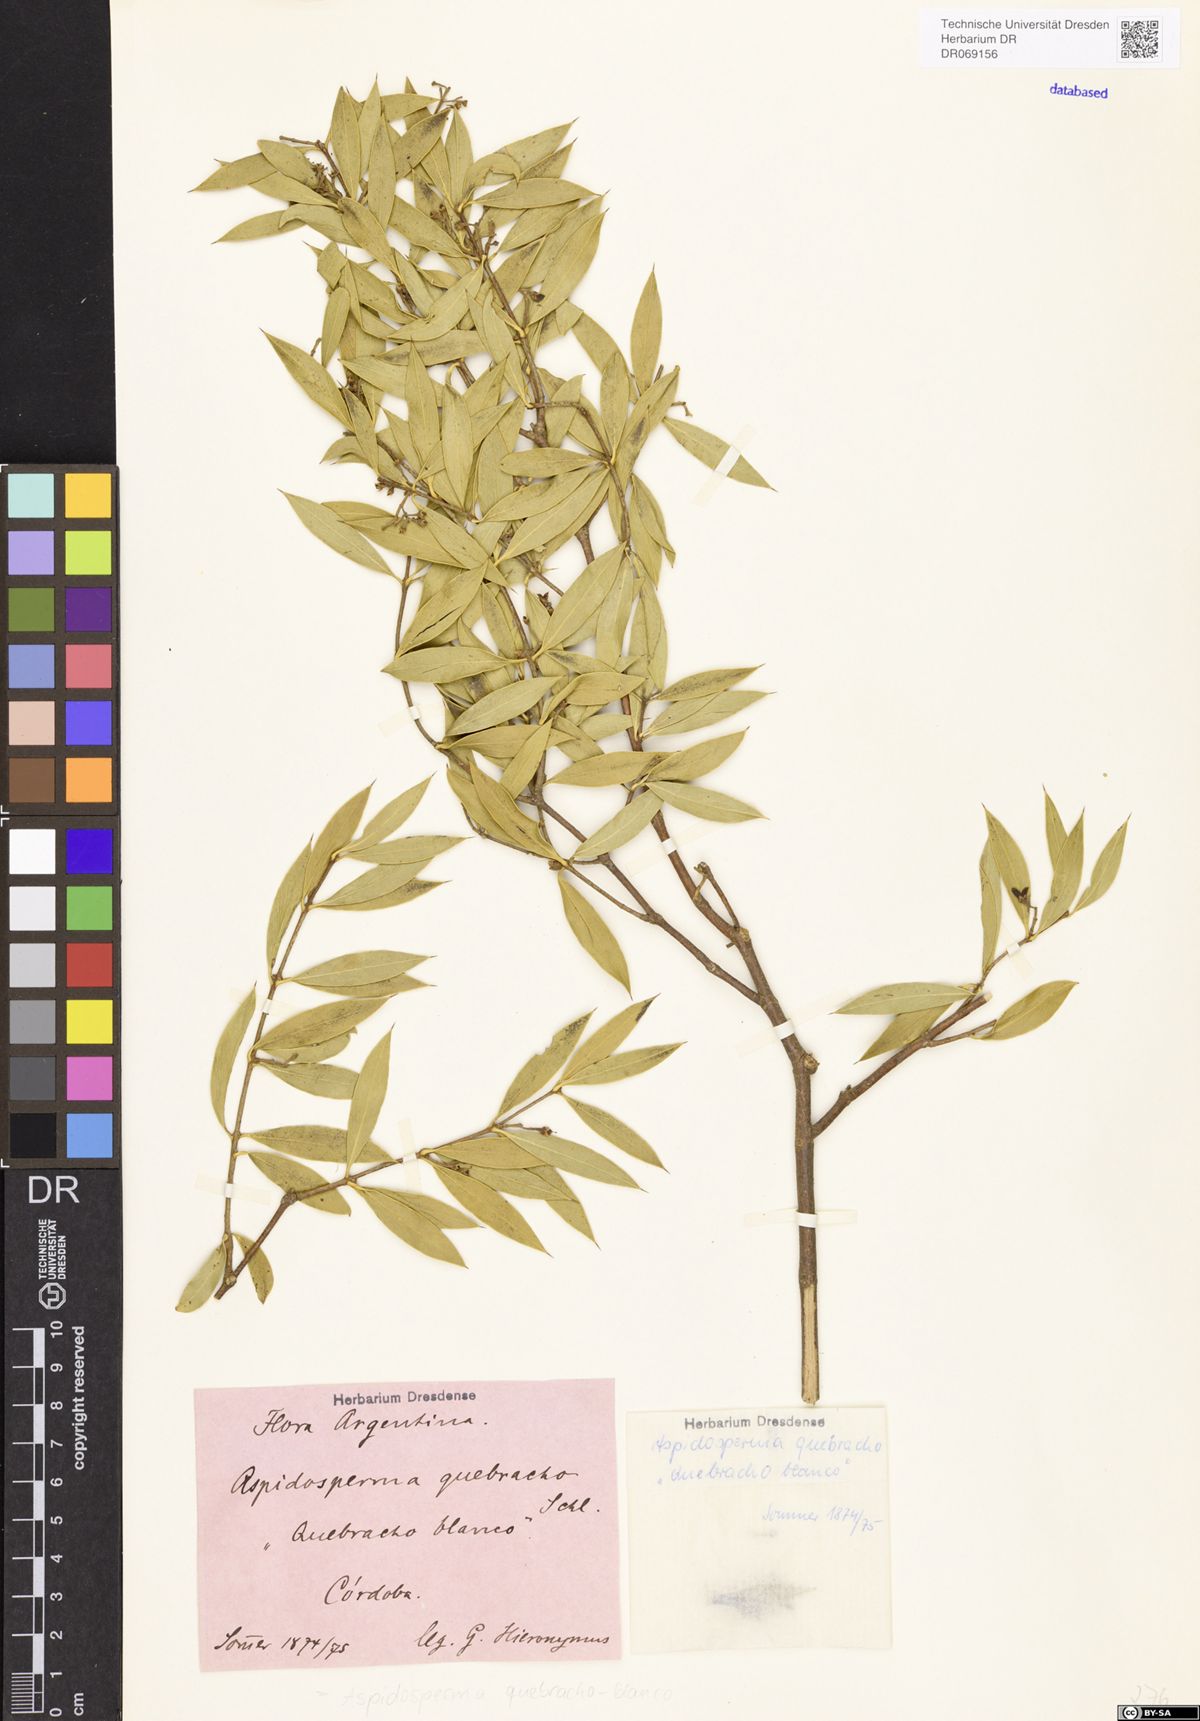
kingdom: Plantae
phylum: Tracheophyta
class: Magnoliopsida
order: Gentianales
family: Apocynaceae
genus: Aspidosperma
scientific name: Aspidosperma quebracho-blanco
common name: White quebracho
